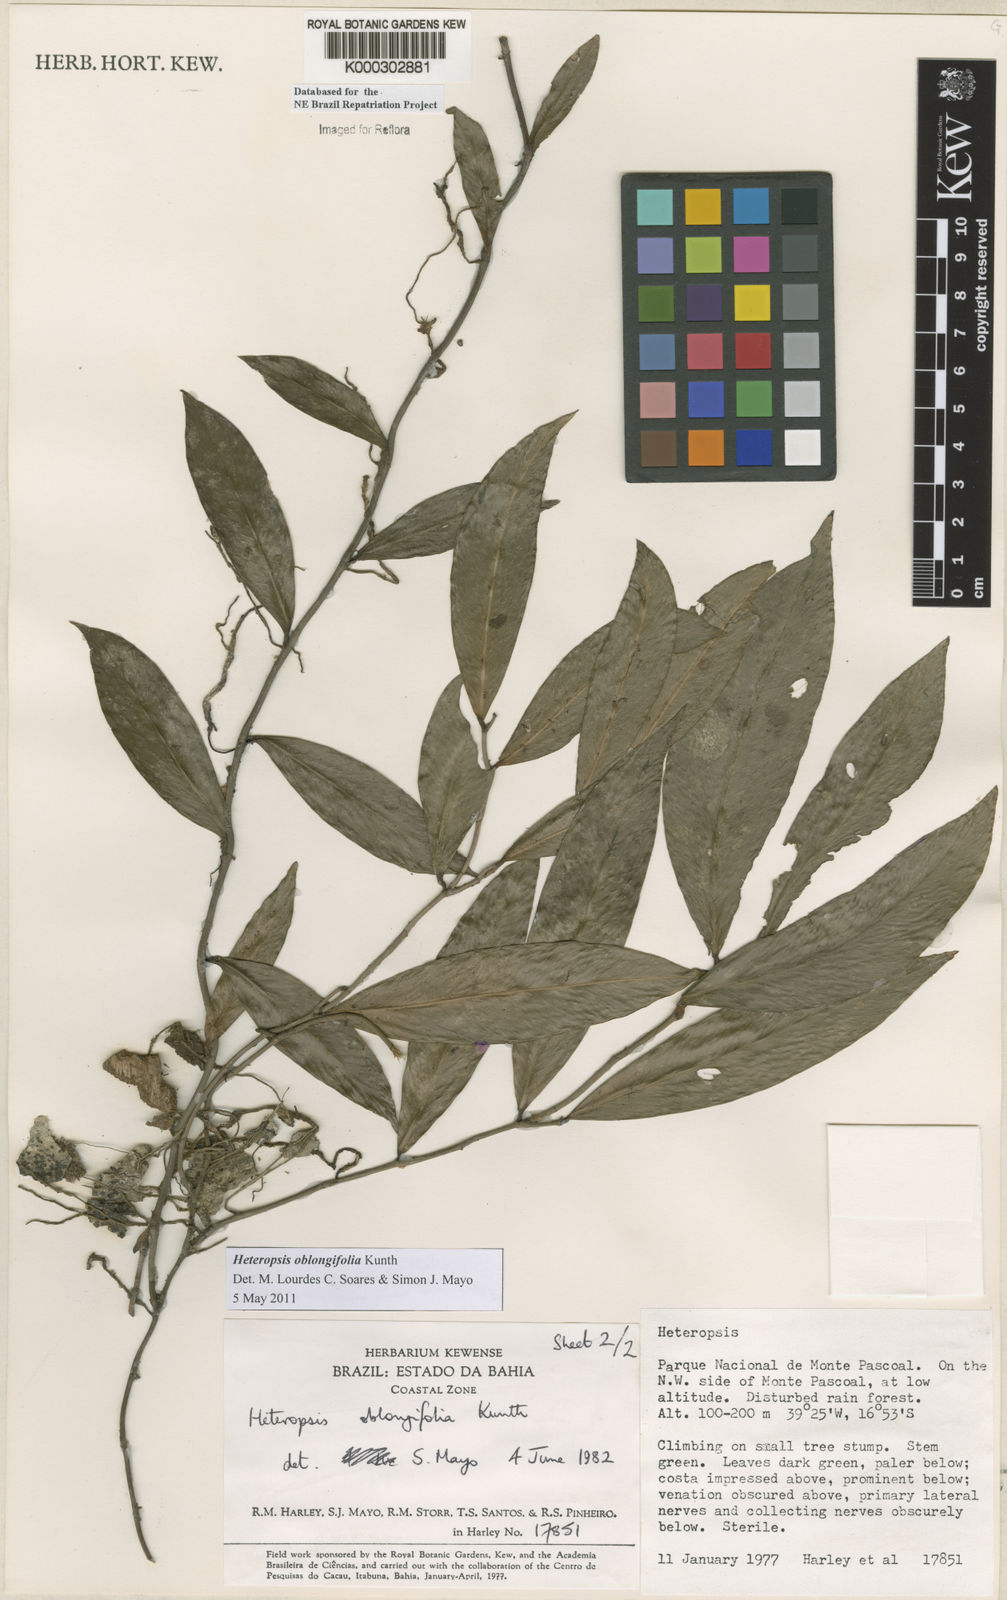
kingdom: Plantae
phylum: Tracheophyta
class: Liliopsida
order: Alismatales
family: Araceae
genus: Heteropsis
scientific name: Heteropsis oblongifolia
